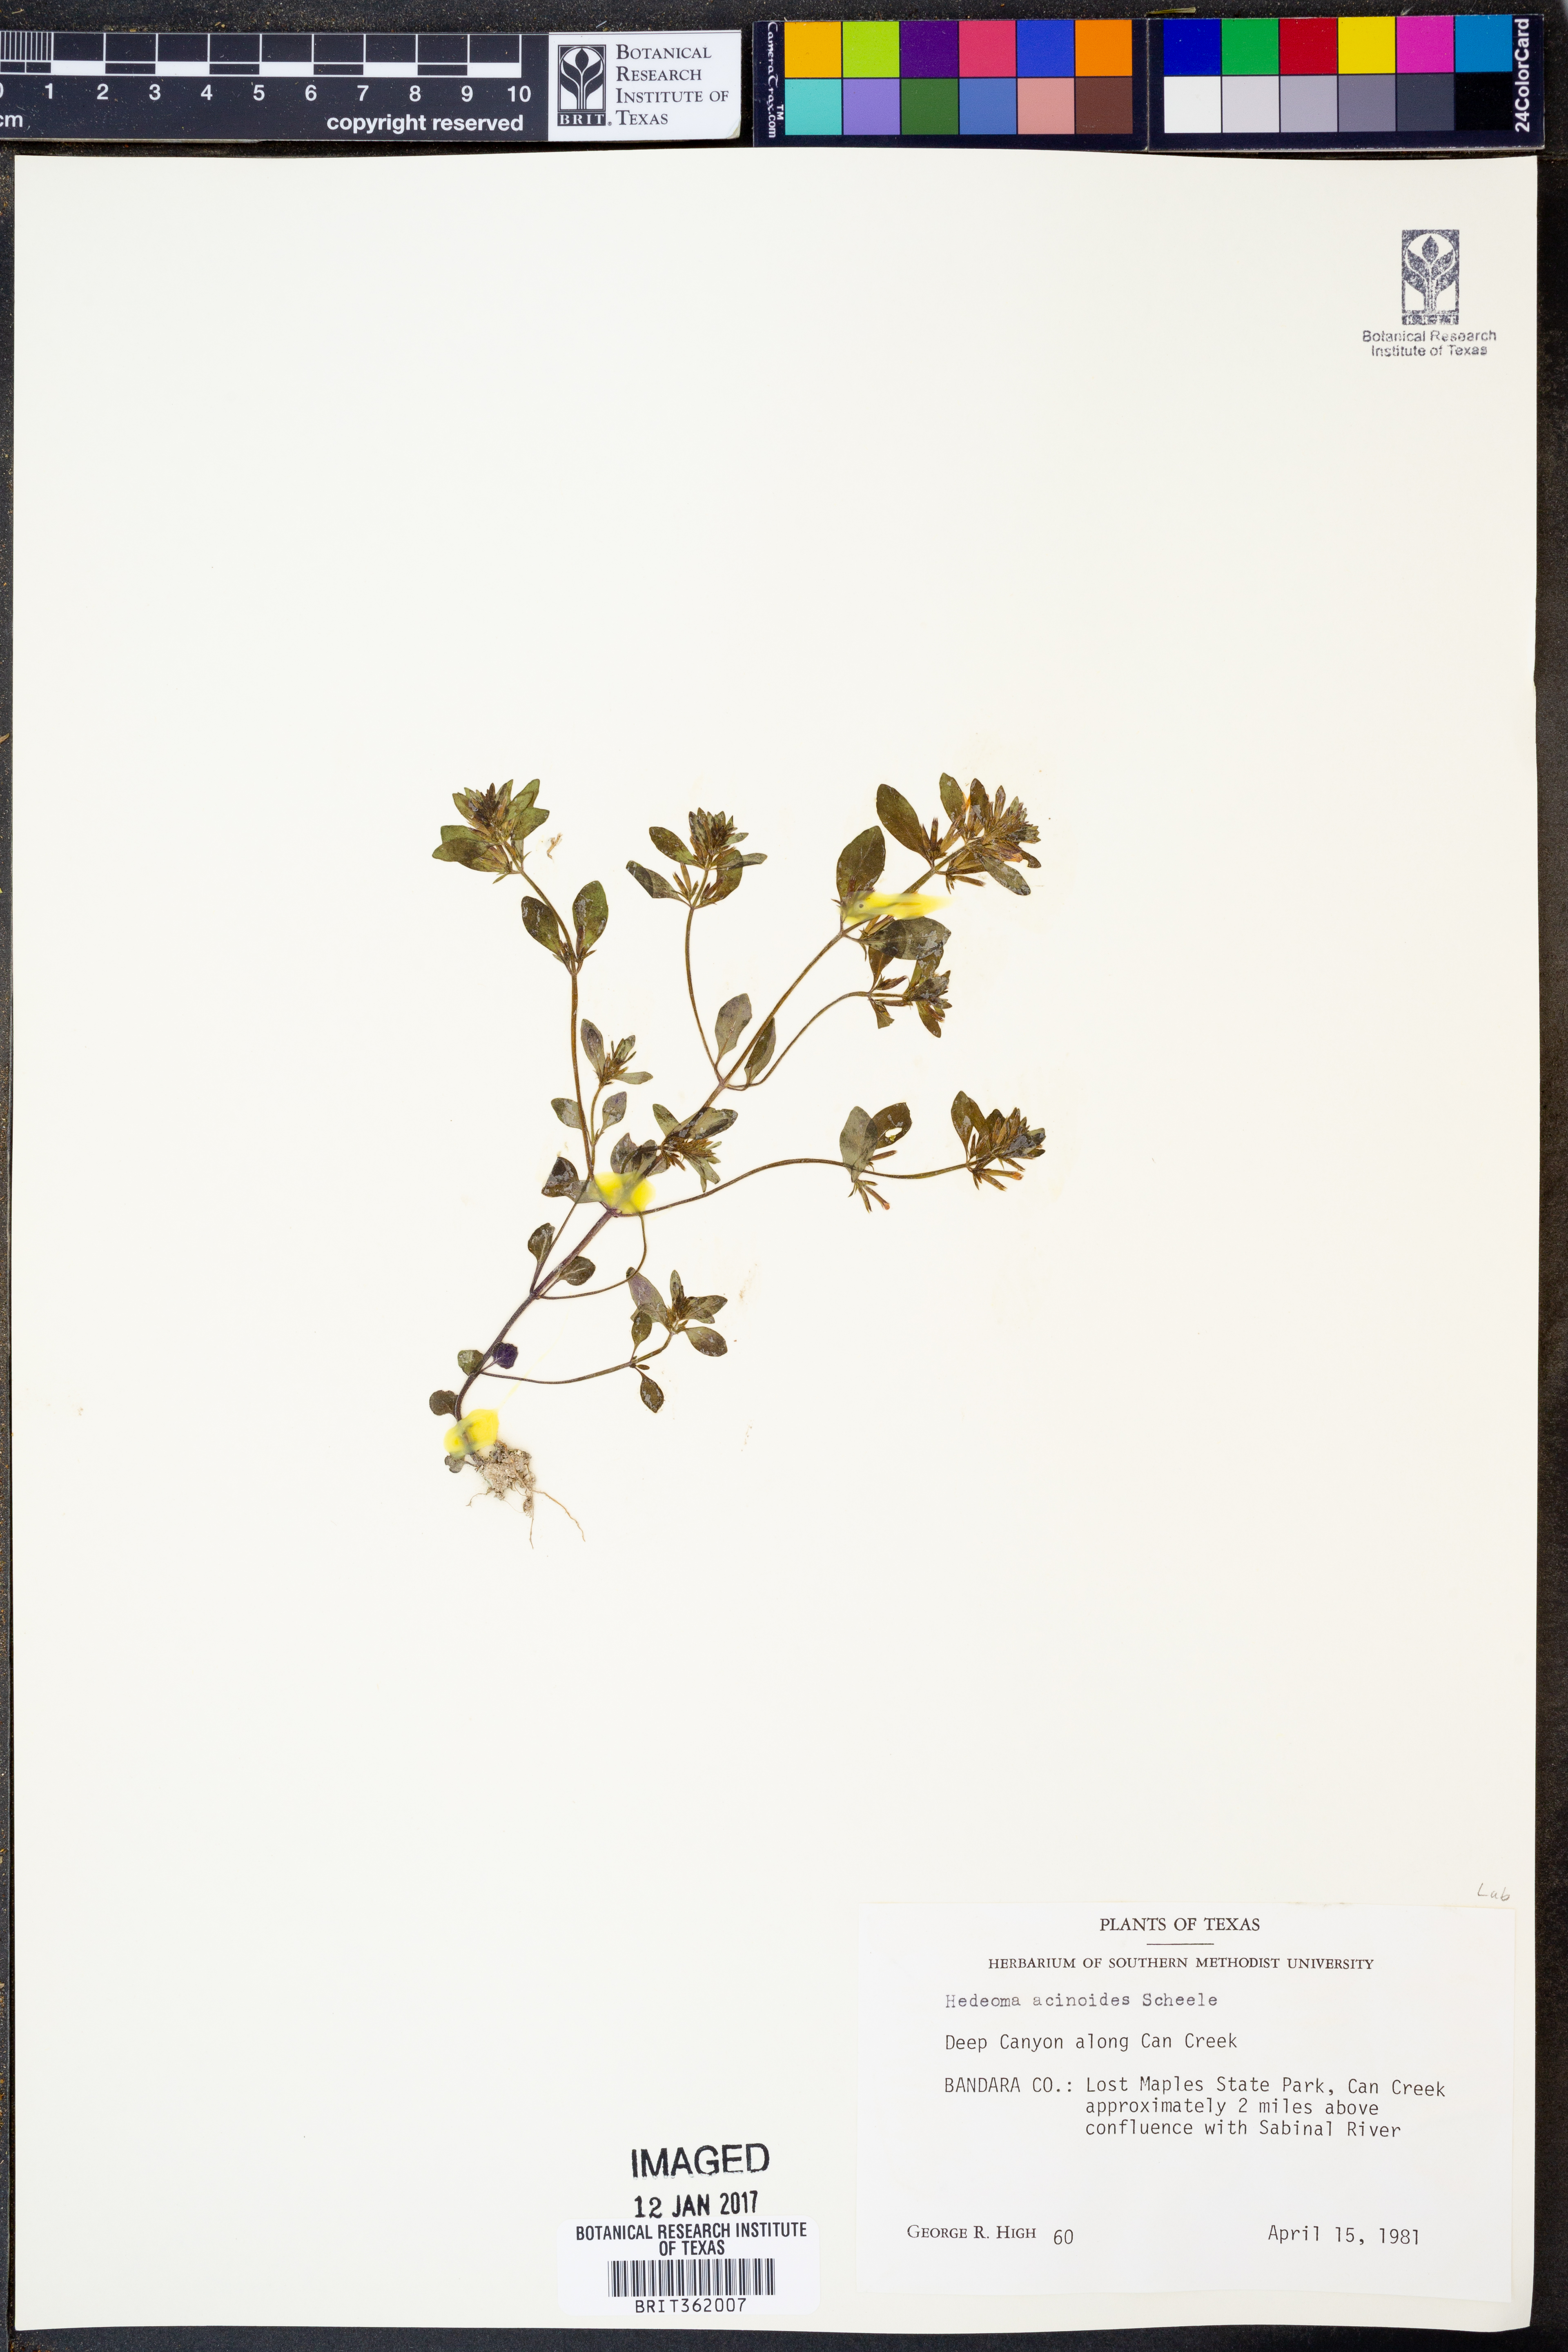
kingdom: Plantae
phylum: Tracheophyta
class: Magnoliopsida
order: Lamiales
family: Lamiaceae
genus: Hedeoma
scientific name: Hedeoma acinoides
